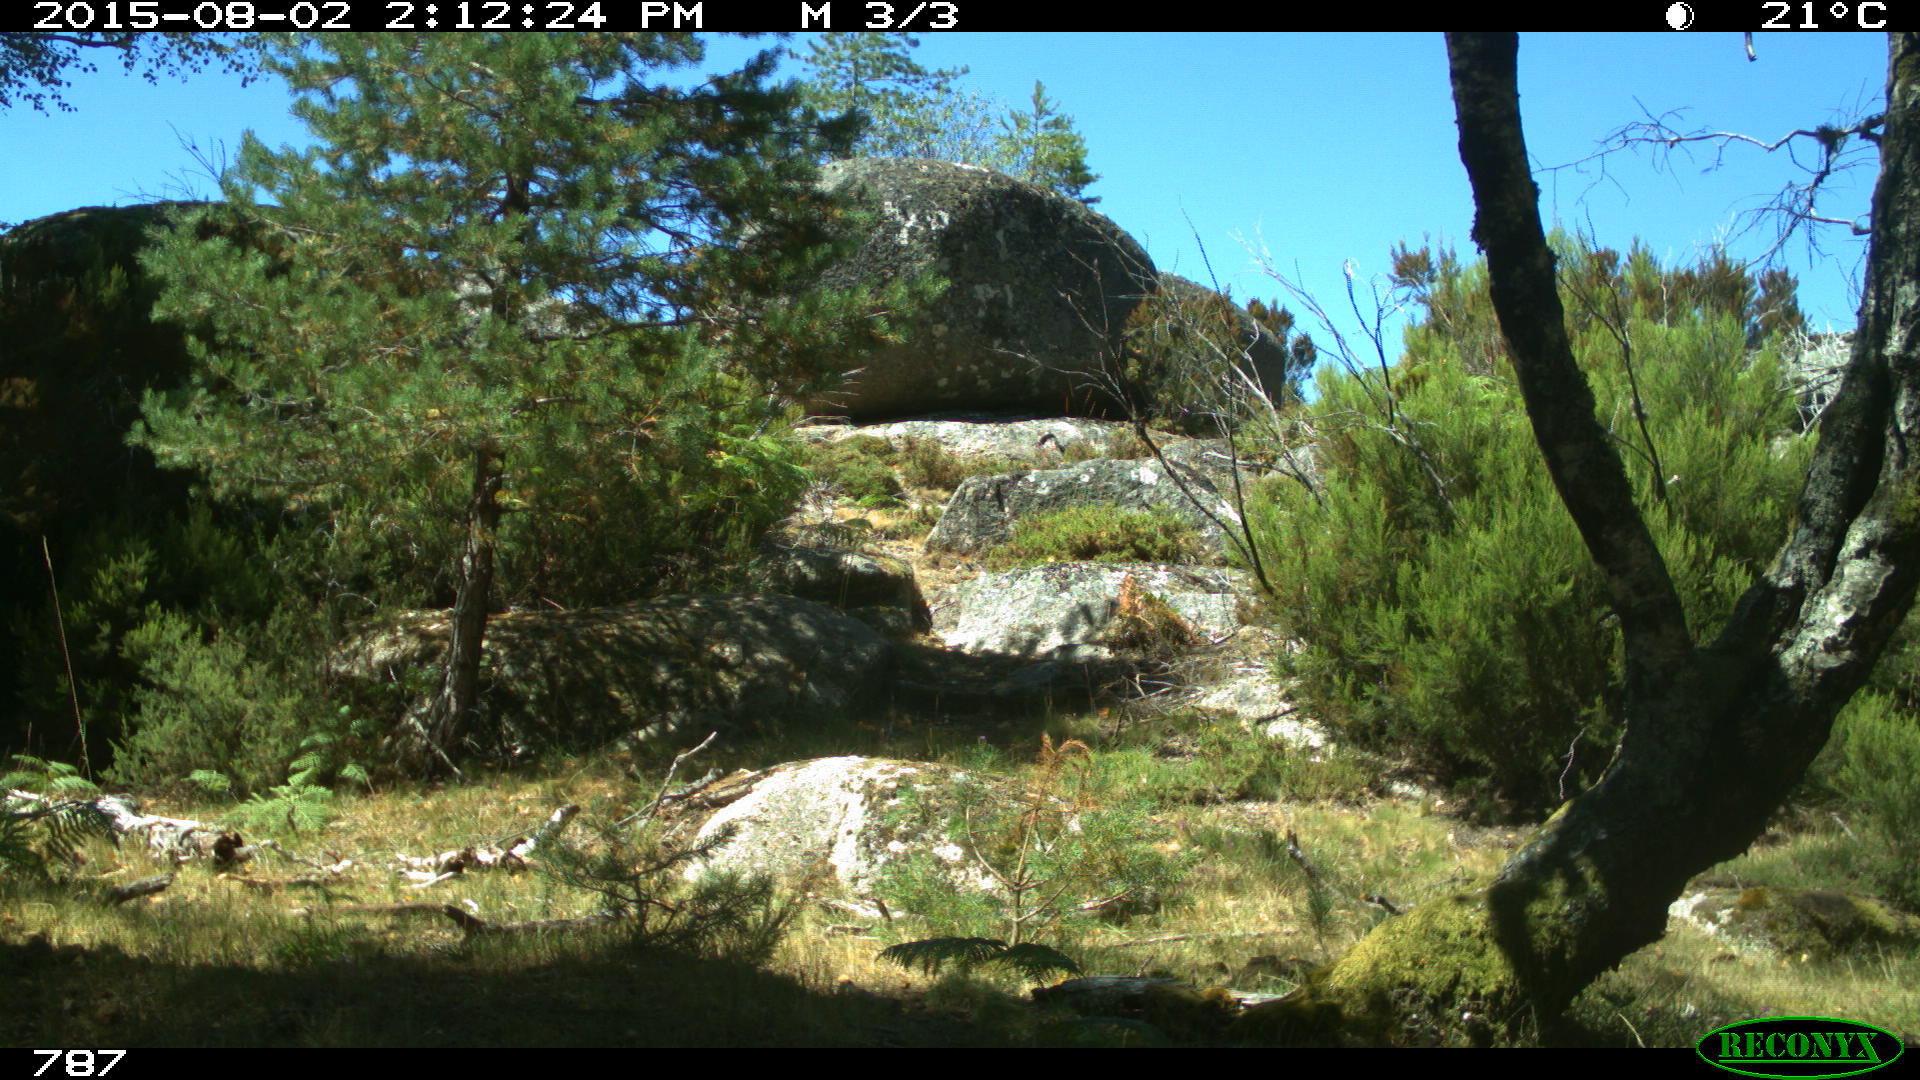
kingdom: Animalia
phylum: Chordata
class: Mammalia
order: Carnivora
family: Canidae
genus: Canis
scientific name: Canis lupus
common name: Gray wolf
